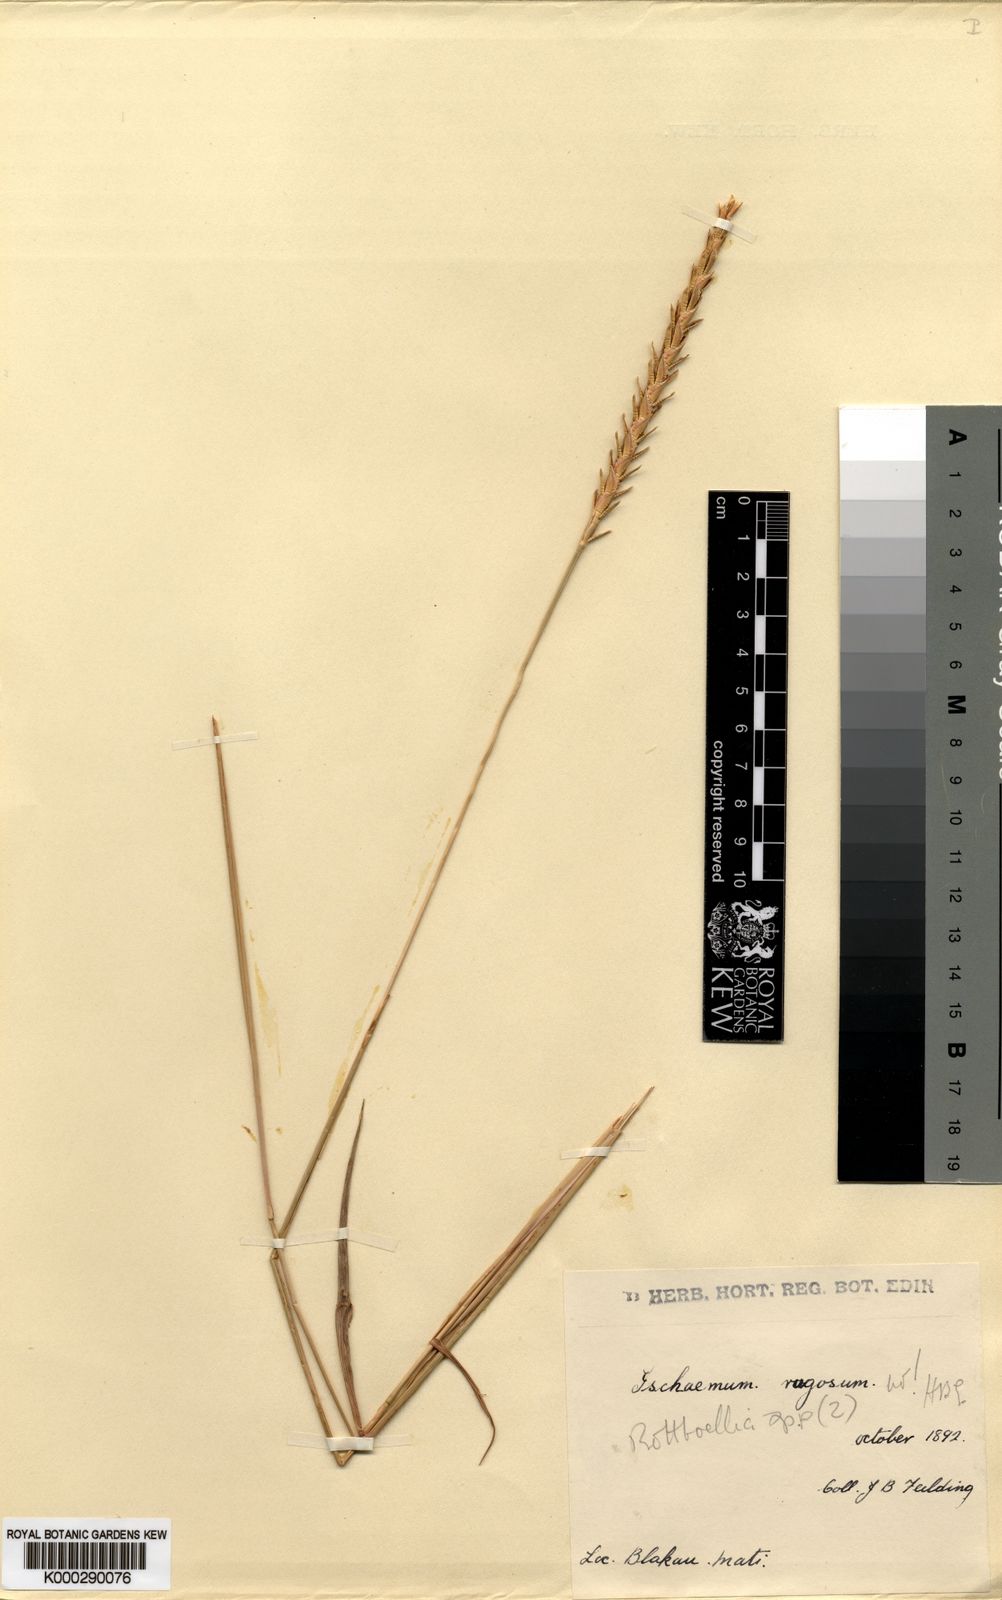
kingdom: Plantae
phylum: Tracheophyta
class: Liliopsida
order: Poales
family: Poaceae
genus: Ischaemum
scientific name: Ischaemum barbatum
